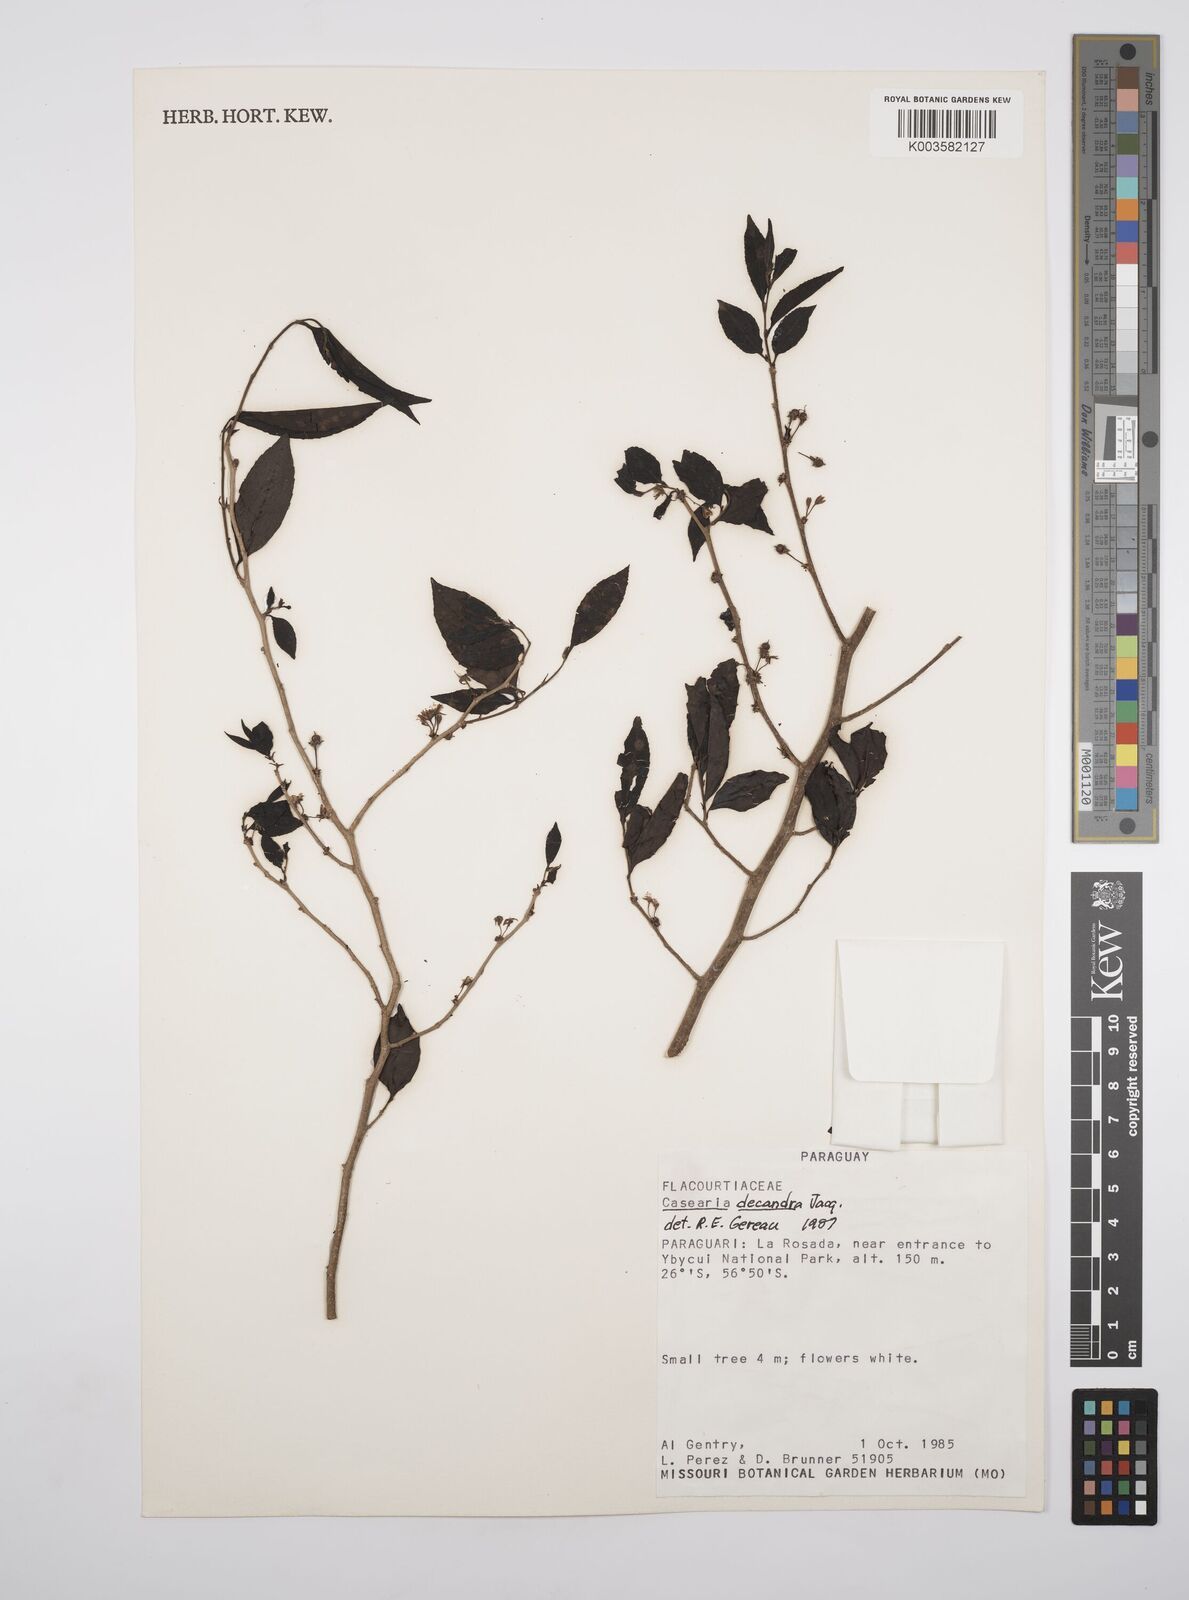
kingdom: Plantae
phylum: Tracheophyta
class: Magnoliopsida
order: Malpighiales
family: Salicaceae
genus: Casearia
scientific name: Casearia
